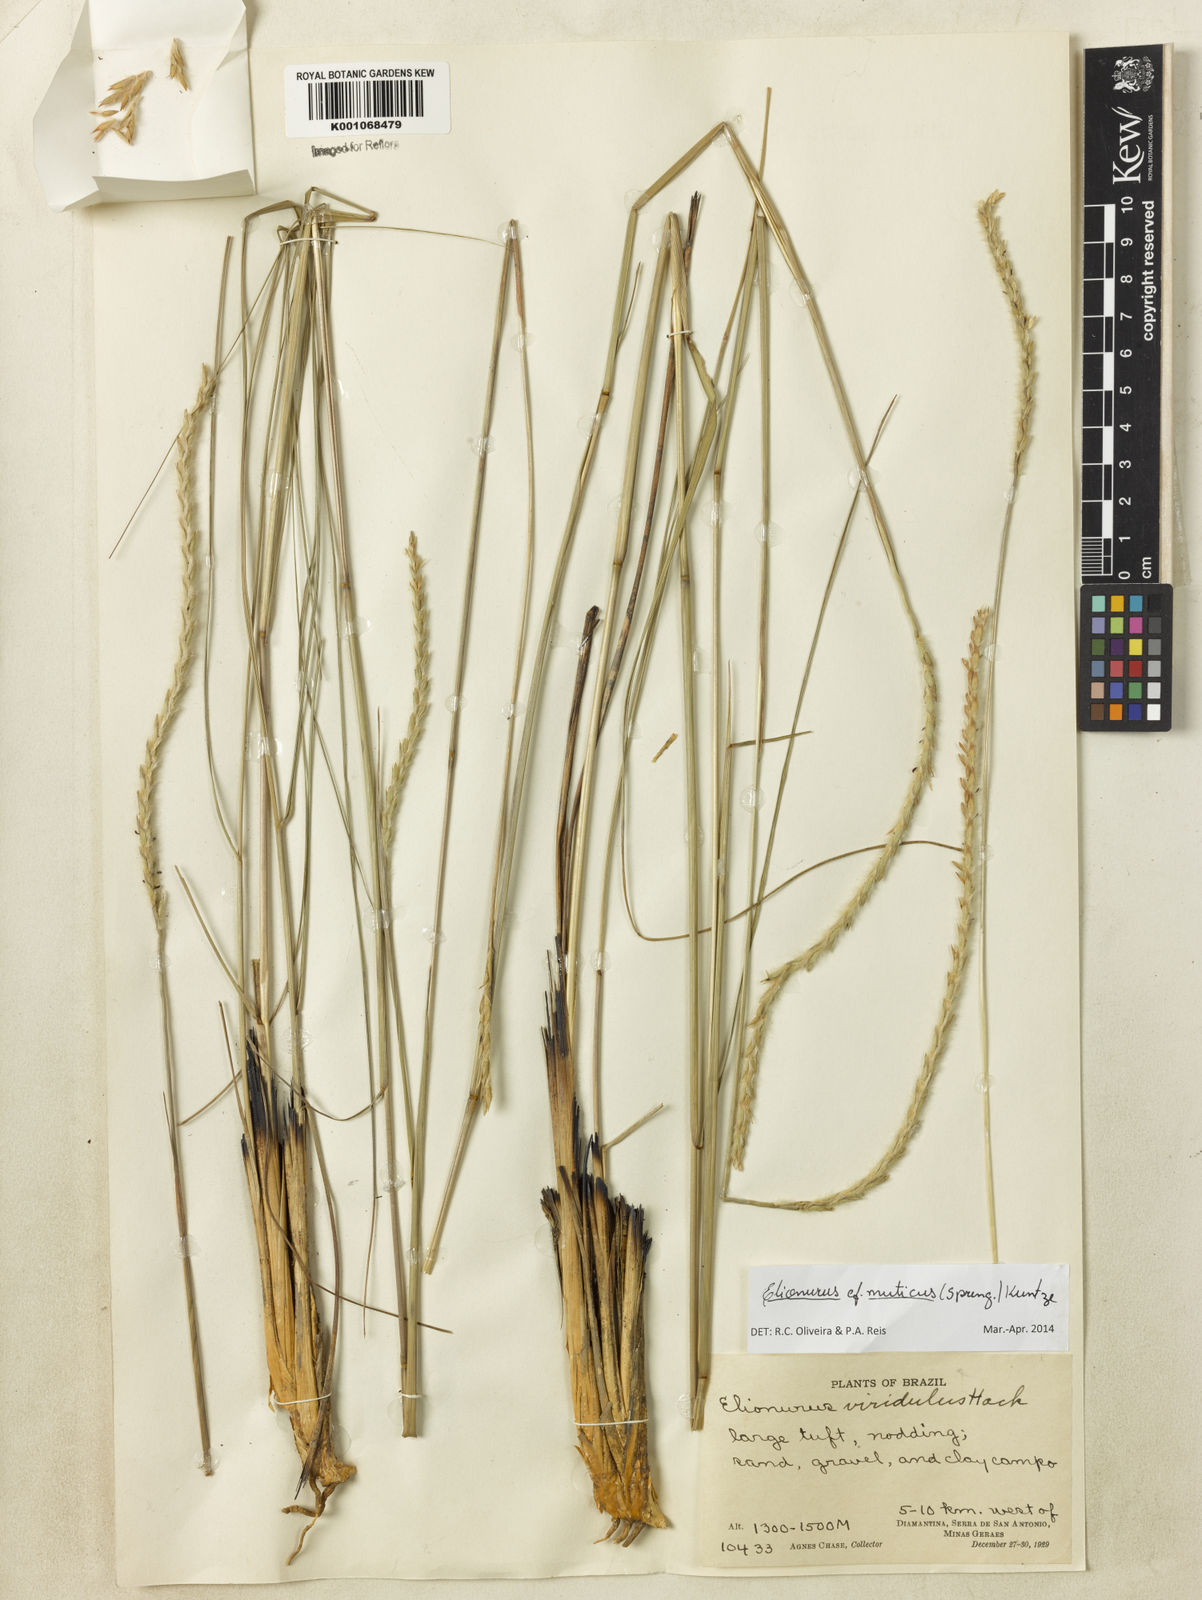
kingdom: Plantae
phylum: Tracheophyta
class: Liliopsida
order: Poales
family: Poaceae
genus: Elionurus
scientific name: Elionurus muticus
